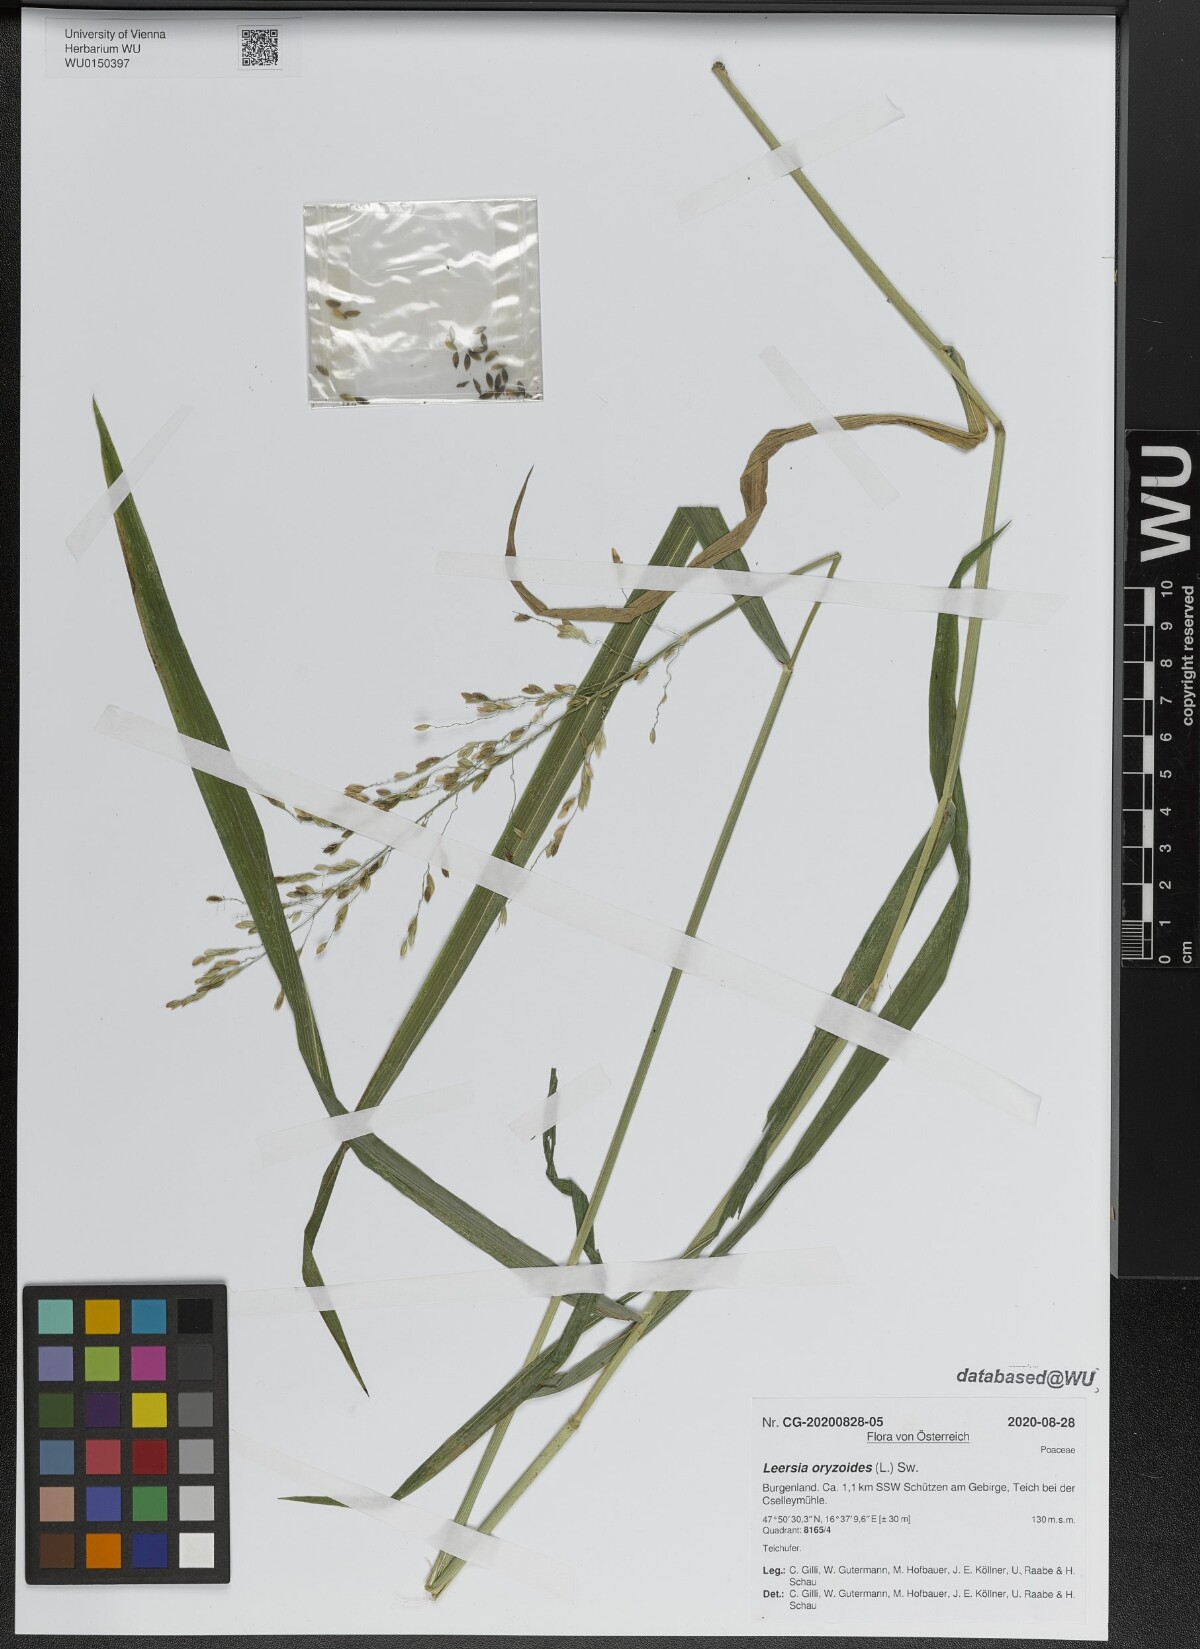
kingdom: Plantae
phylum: Tracheophyta
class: Liliopsida
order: Poales
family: Poaceae
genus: Leersia
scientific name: Leersia oryzoides
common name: Cut-grass
